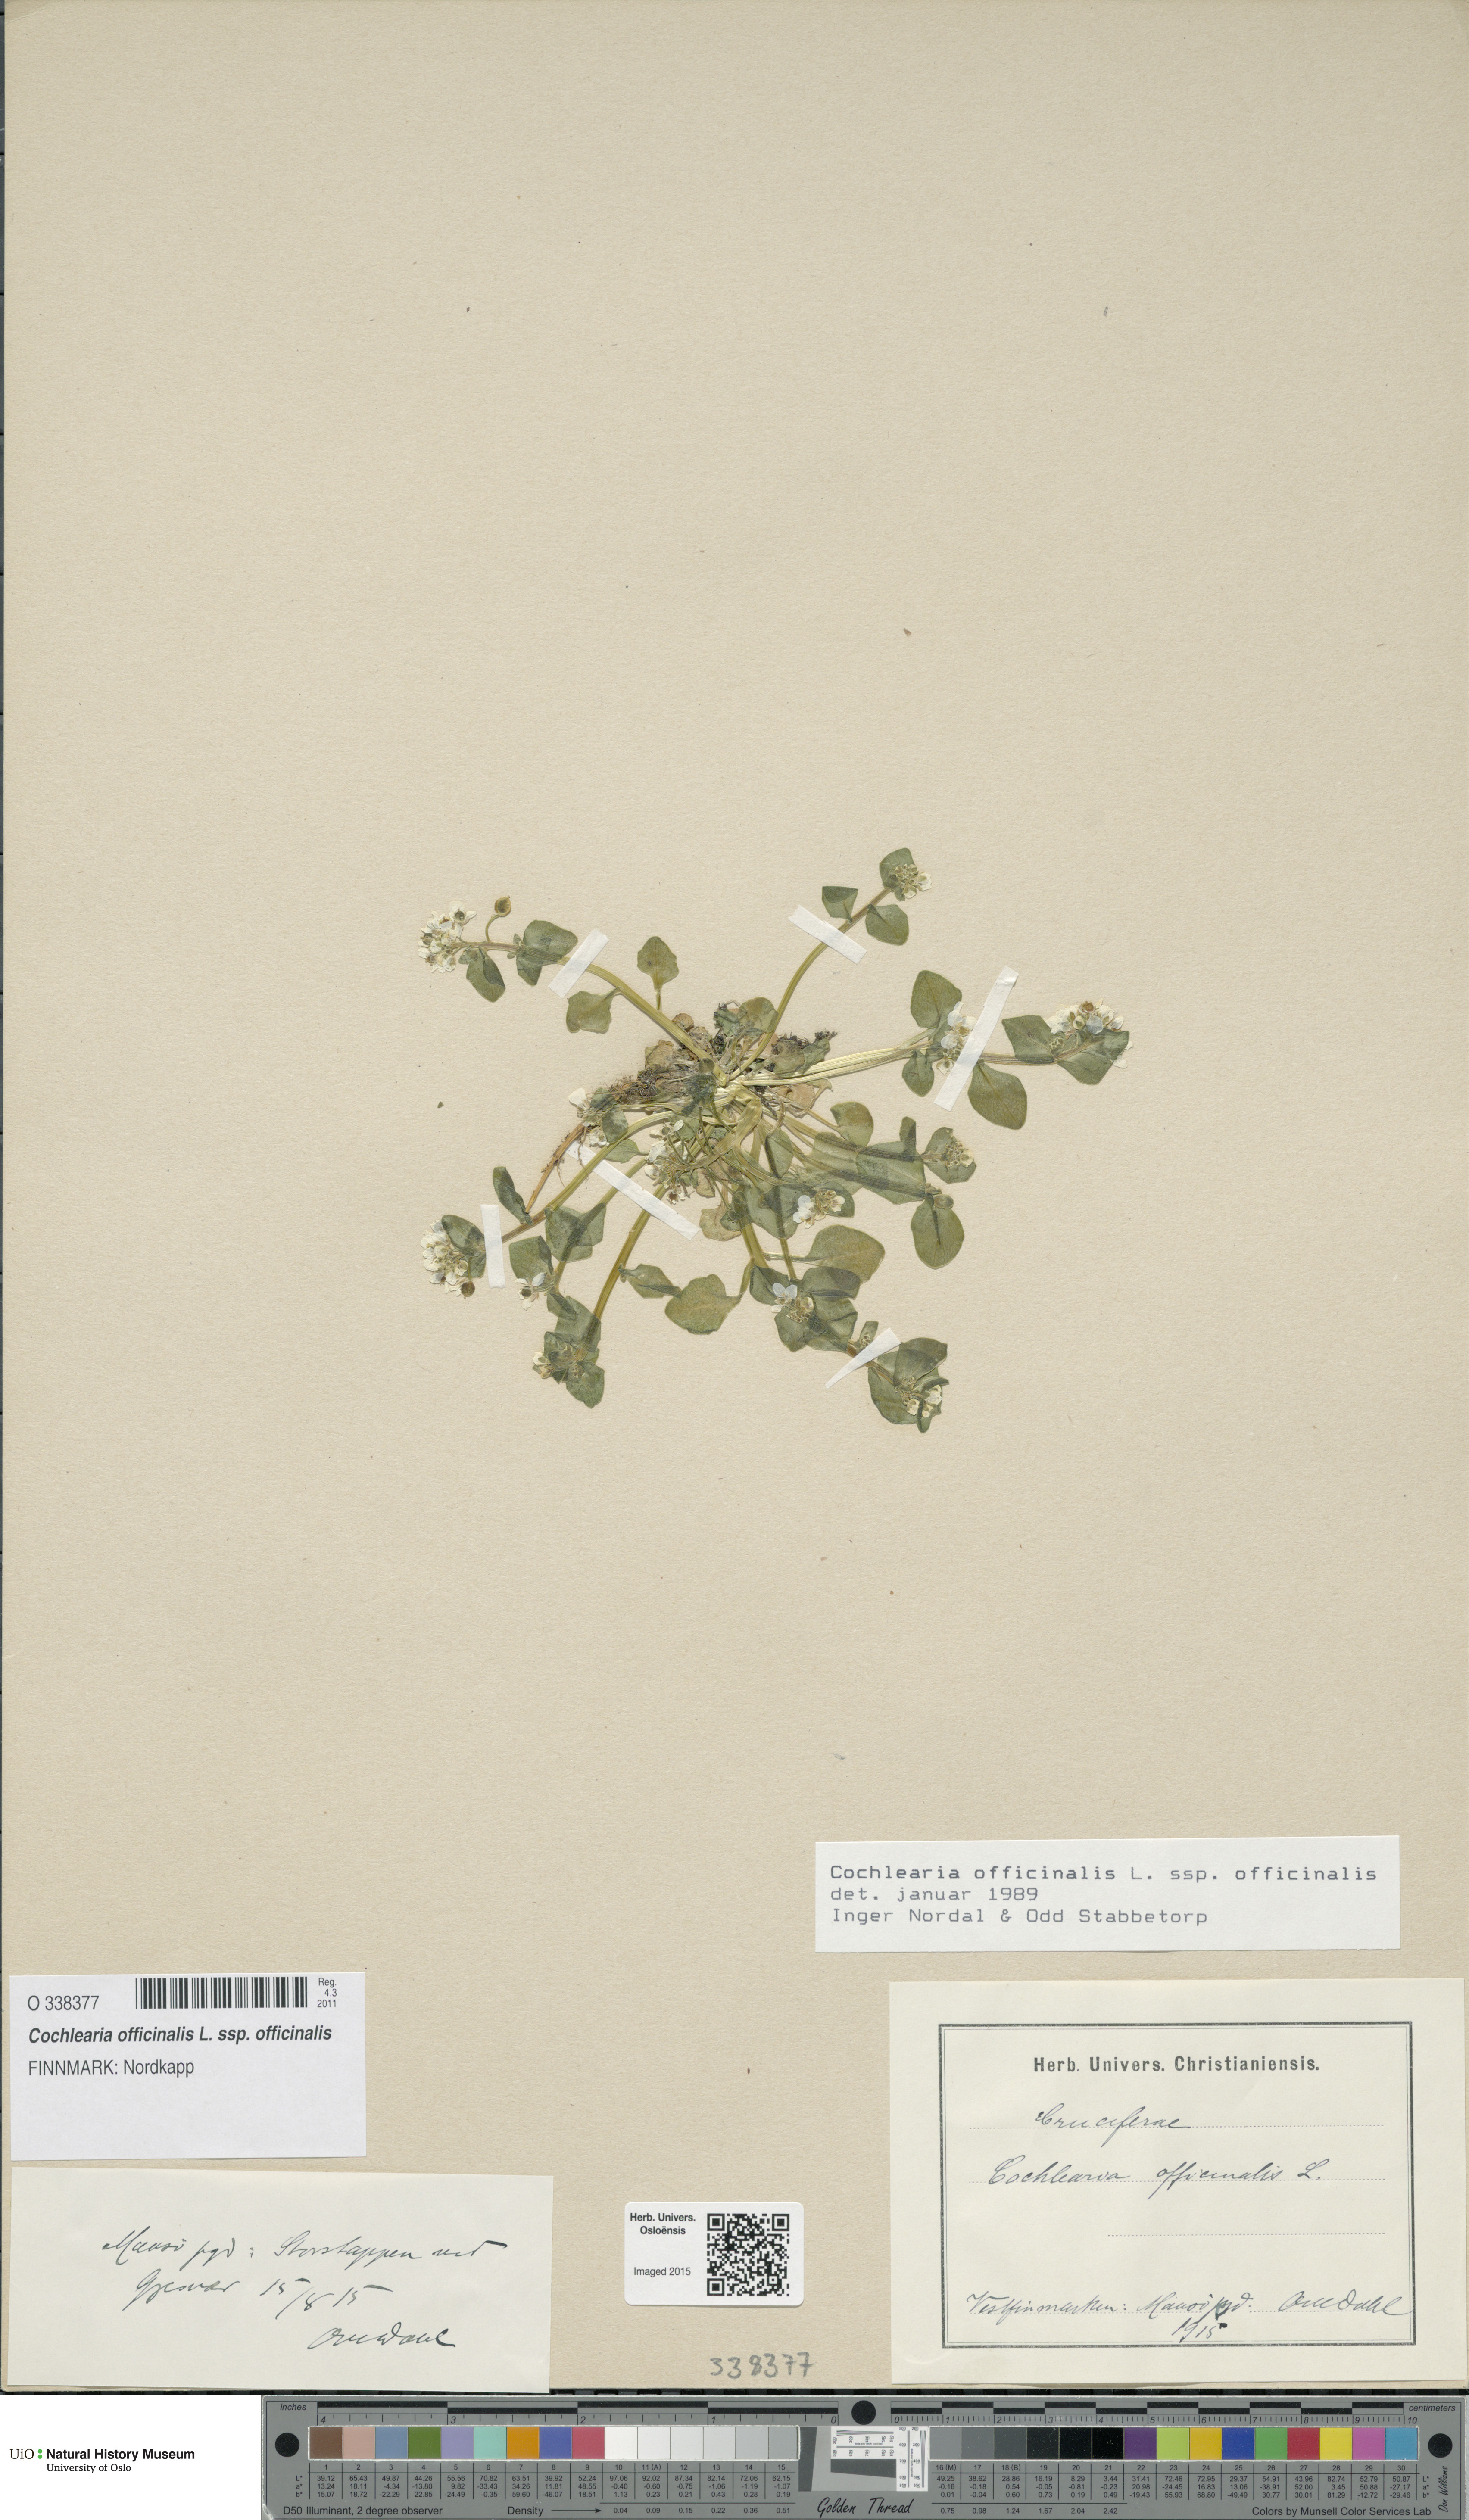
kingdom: Plantae
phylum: Tracheophyta
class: Magnoliopsida
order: Brassicales
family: Brassicaceae
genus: Cochlearia
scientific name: Cochlearia officinalis
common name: Scurvy-grass
